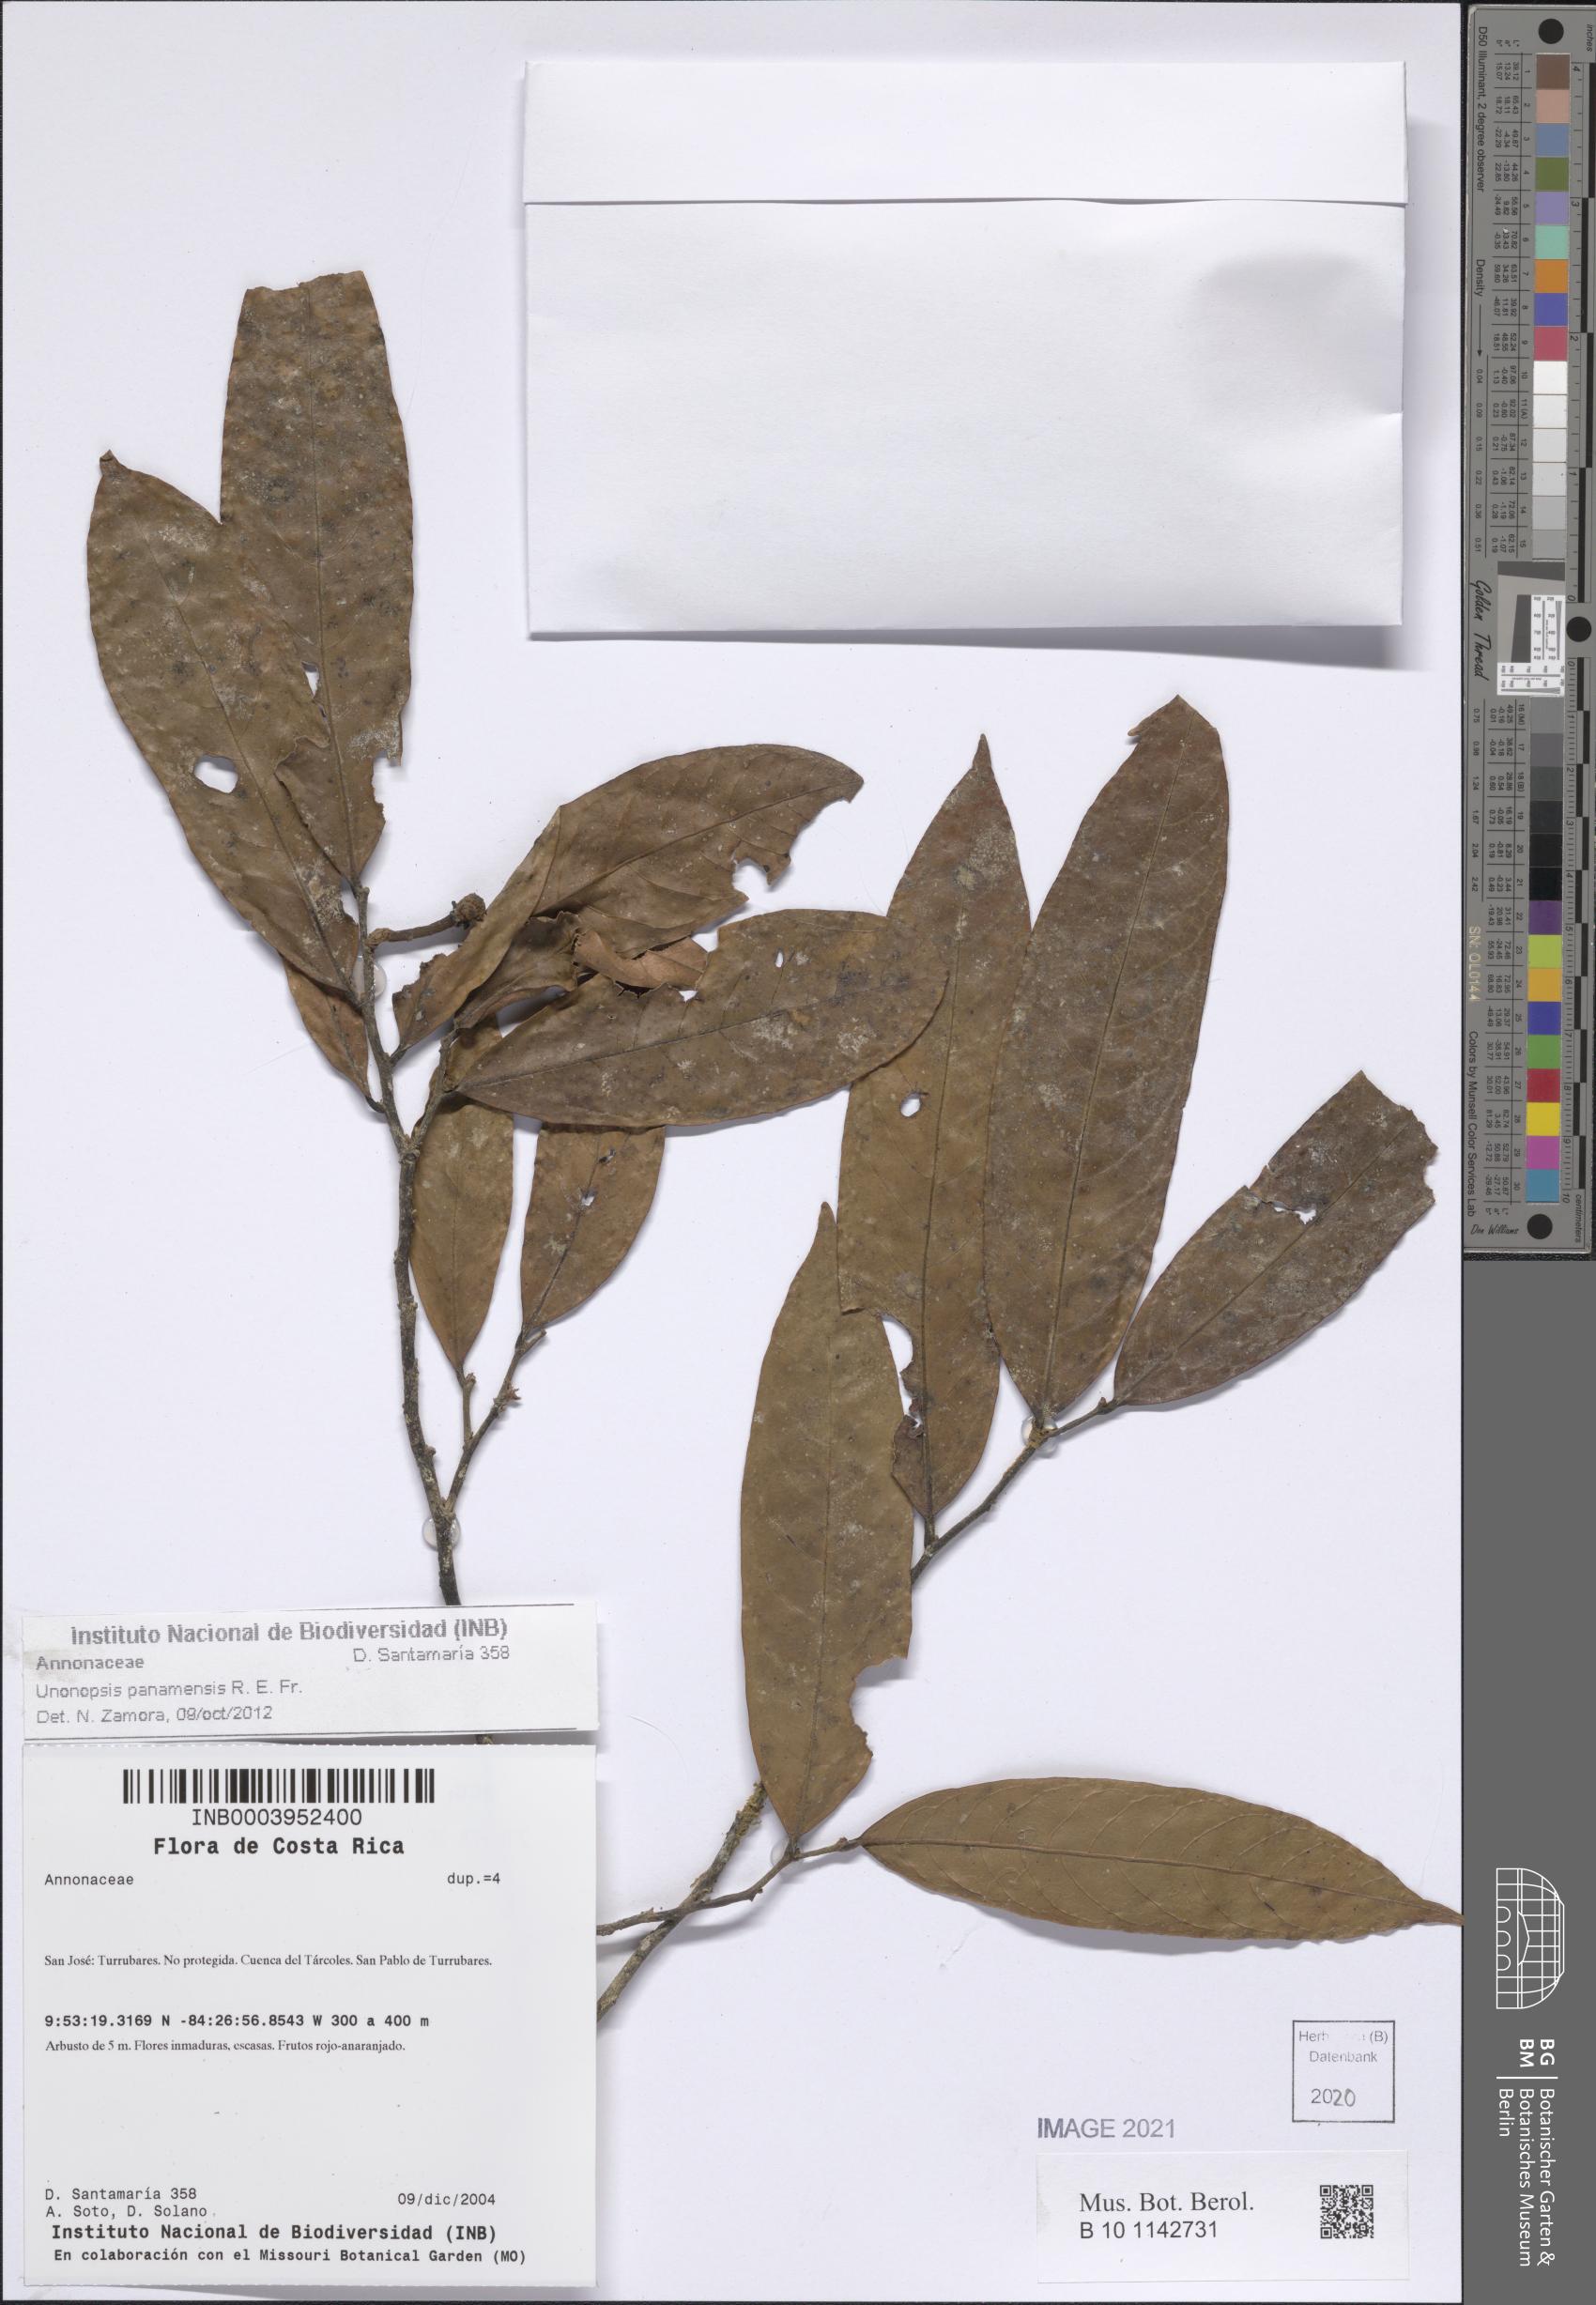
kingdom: Plantae
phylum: Tracheophyta
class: Magnoliopsida
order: Magnoliales
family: Annonaceae
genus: Unonopsis
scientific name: Unonopsis panamensis
